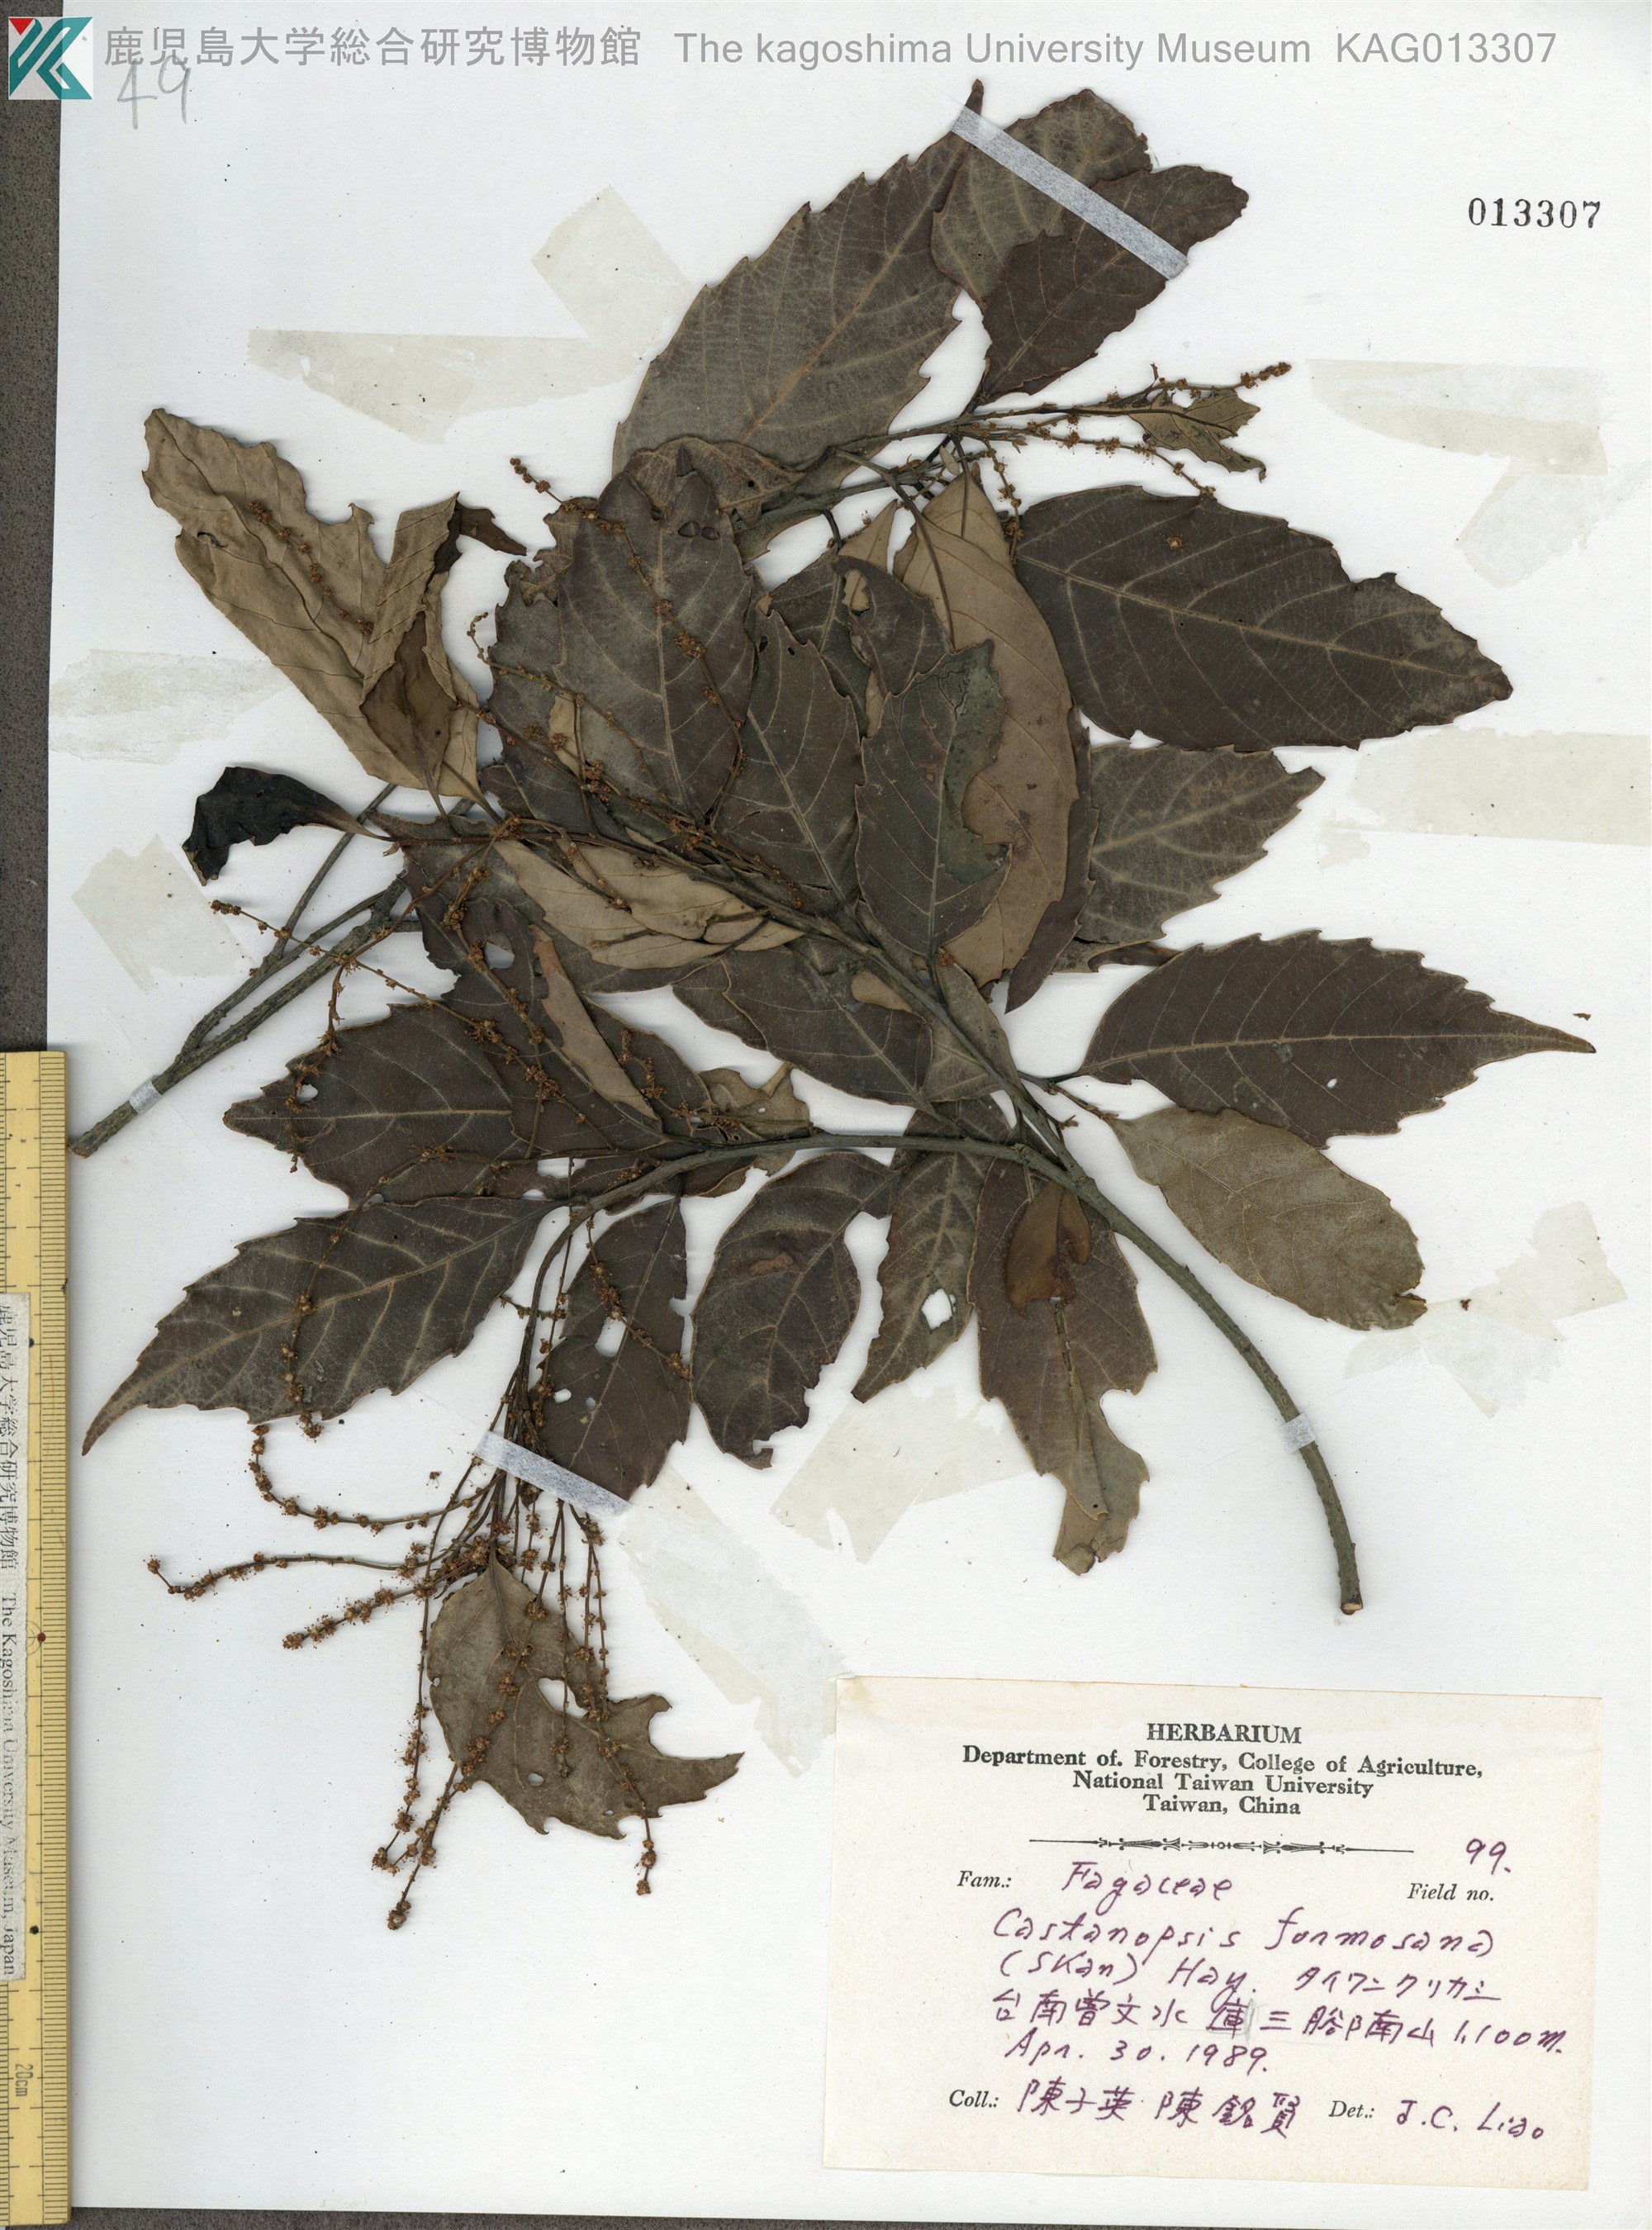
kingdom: Plantae
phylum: Tracheophyta
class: Magnoliopsida
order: Fagales
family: Fagaceae
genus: Castanopsis
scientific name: Castanopsis formosana
